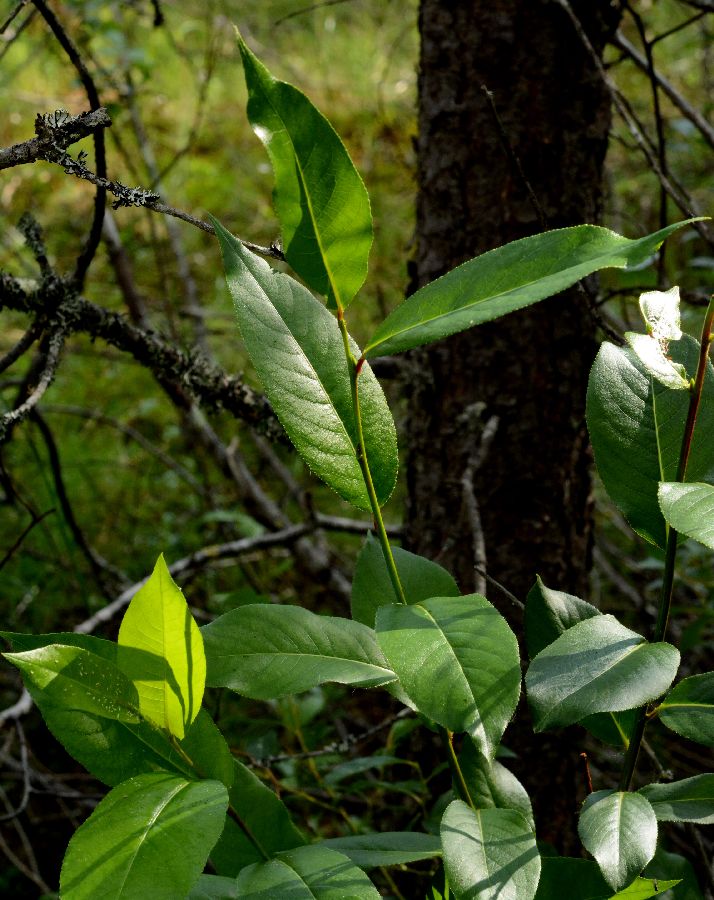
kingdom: Plantae
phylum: Tracheophyta
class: Magnoliopsida
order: Malpighiales
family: Salicaceae
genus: Salix
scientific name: Salix pentandra
